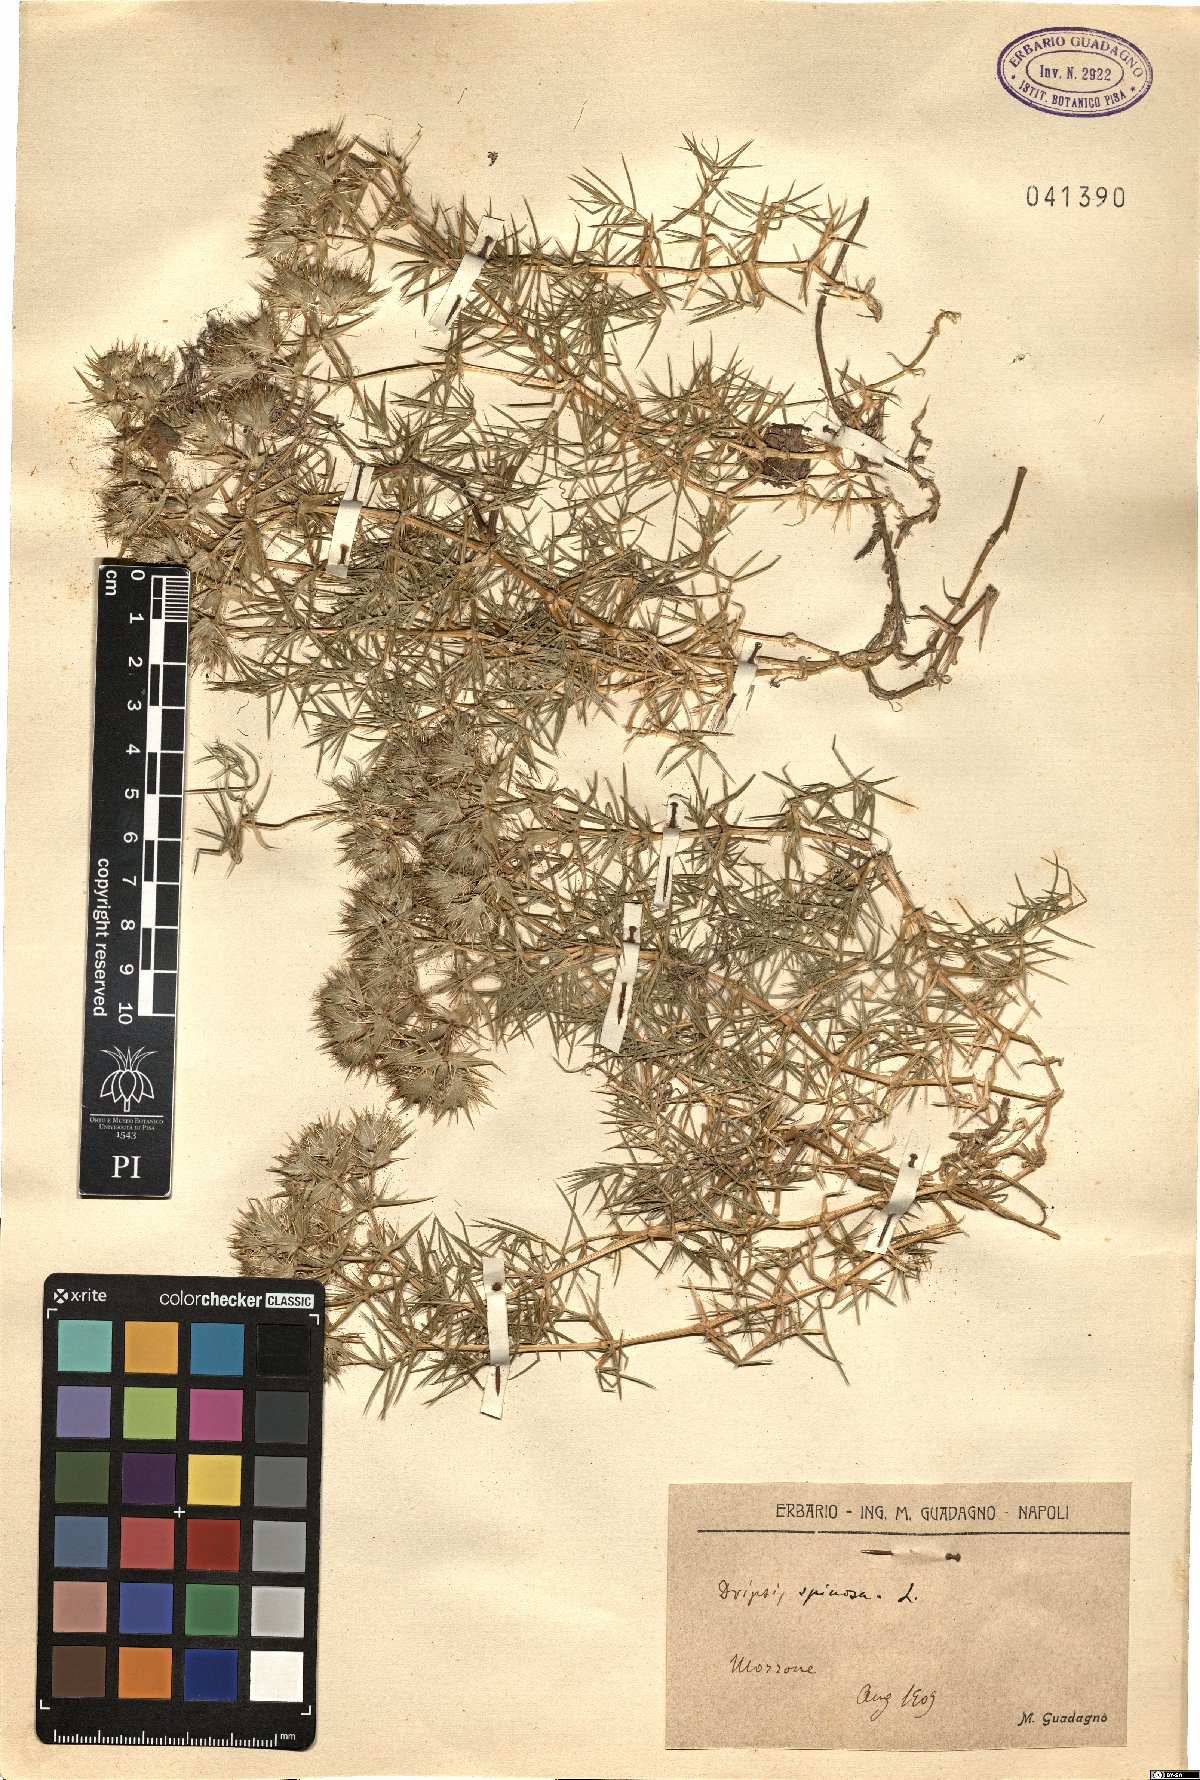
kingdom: Plantae
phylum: Tracheophyta
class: Magnoliopsida
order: Caryophyllales
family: Caryophyllaceae
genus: Drypis
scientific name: Drypis spinosa
